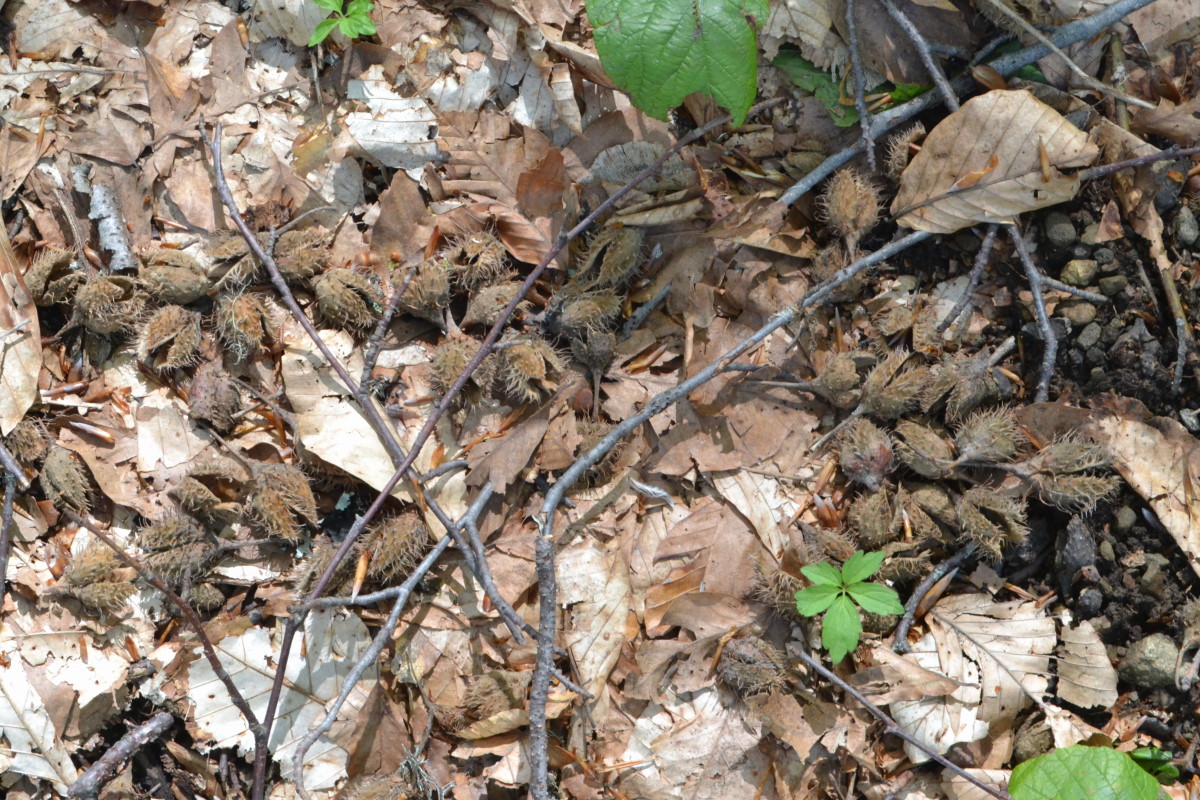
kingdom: Plantae
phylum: Tracheophyta
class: Magnoliopsida
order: Fagales
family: Fagaceae
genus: Fagus
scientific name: Fagus
